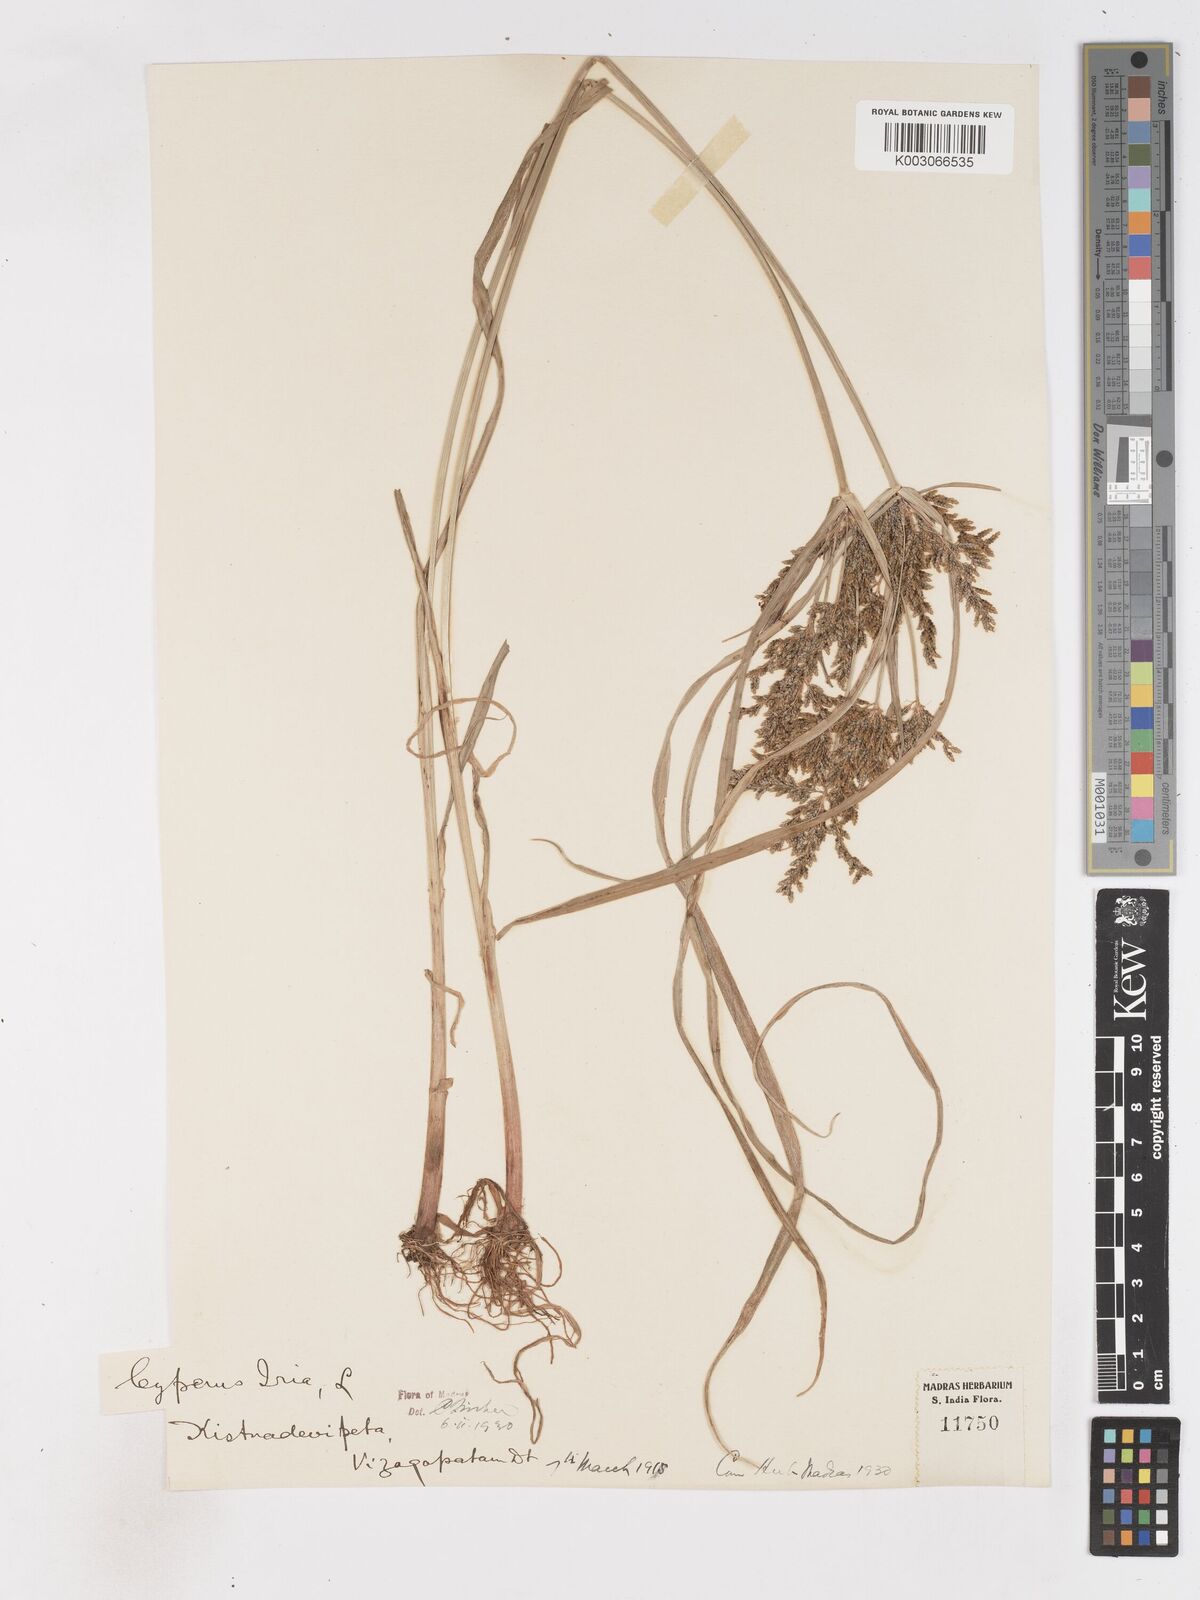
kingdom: Plantae
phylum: Tracheophyta
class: Liliopsida
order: Poales
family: Cyperaceae
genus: Cyperus
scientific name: Cyperus iria
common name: Ricefield flatsedge
